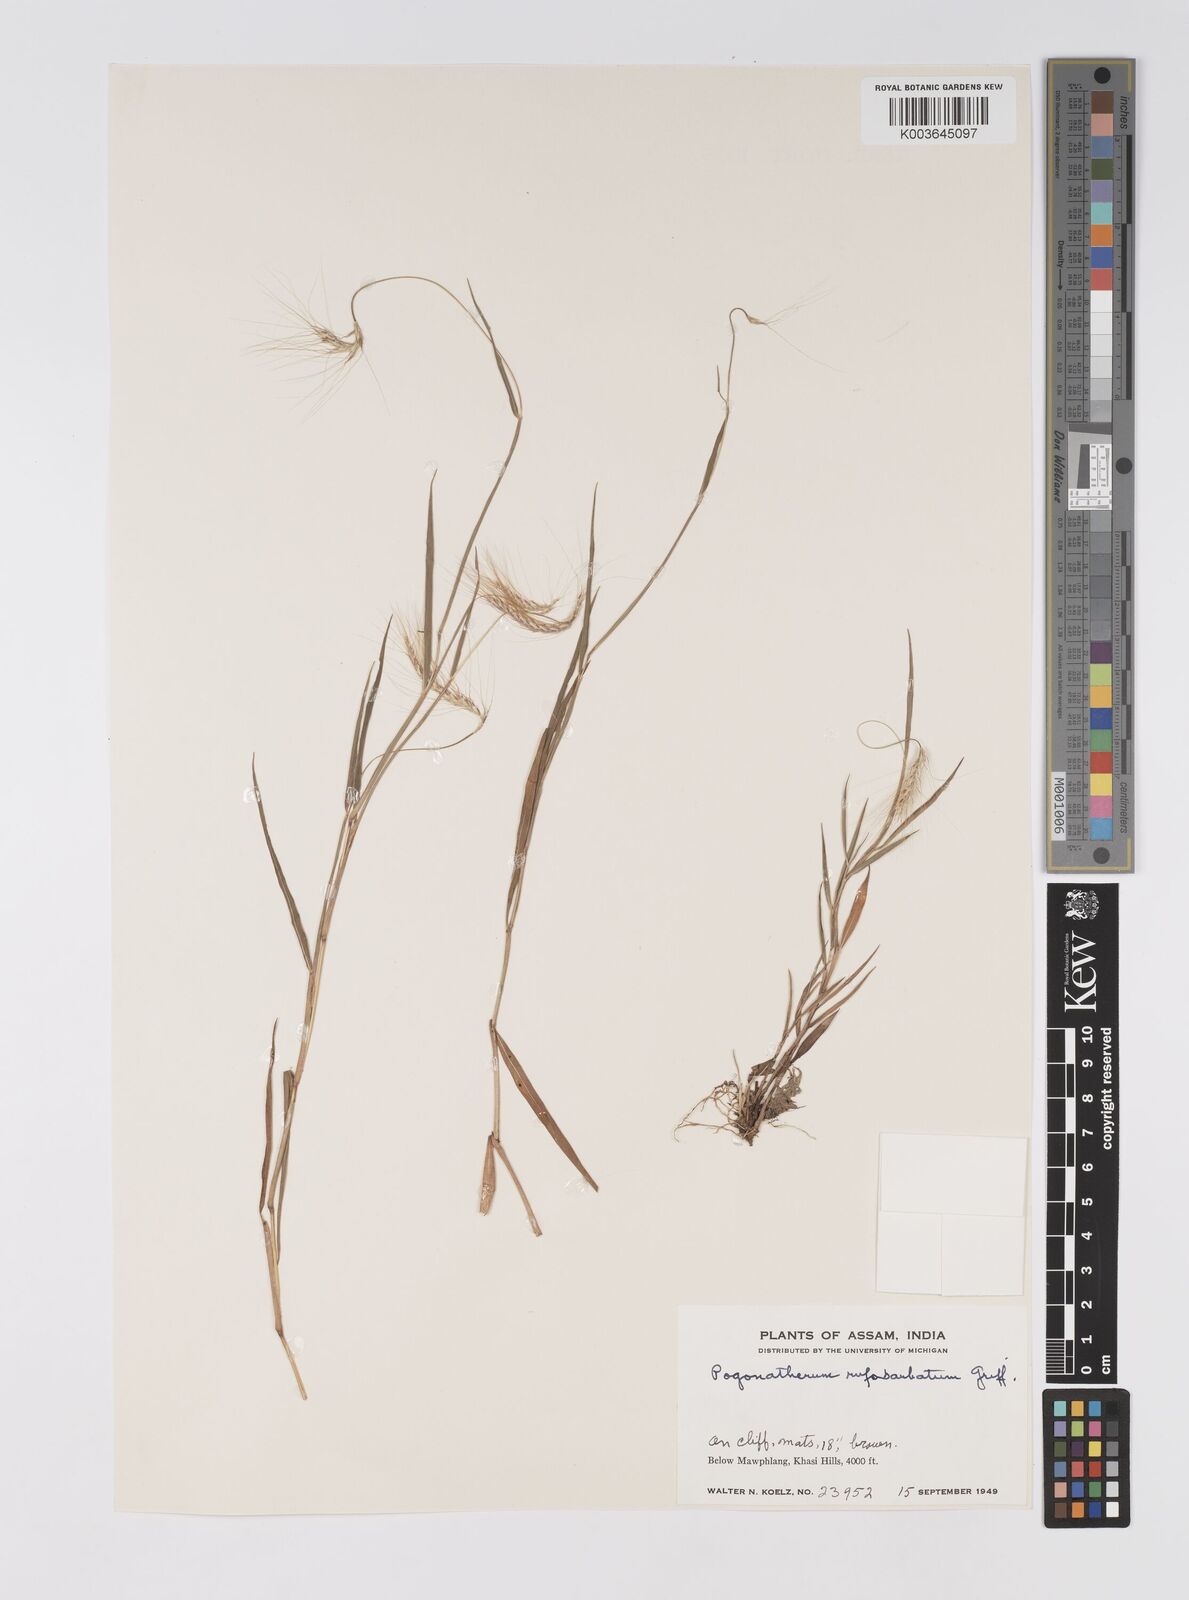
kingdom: Plantae
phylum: Tracheophyta
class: Liliopsida
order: Poales
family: Poaceae
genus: Pogonatherum
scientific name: Pogonatherum rufobarbatum
